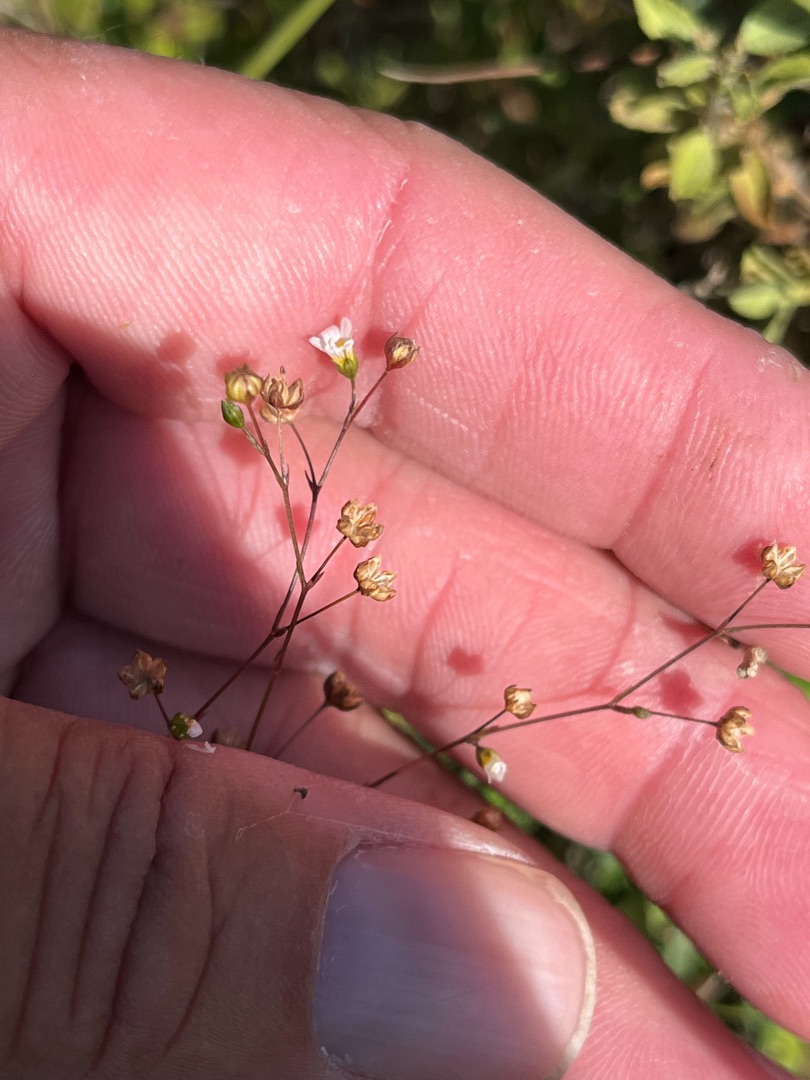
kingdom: Plantae
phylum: Tracheophyta
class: Magnoliopsida
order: Malpighiales
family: Linaceae
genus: Linum
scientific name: Linum catharticum
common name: Vild hør
